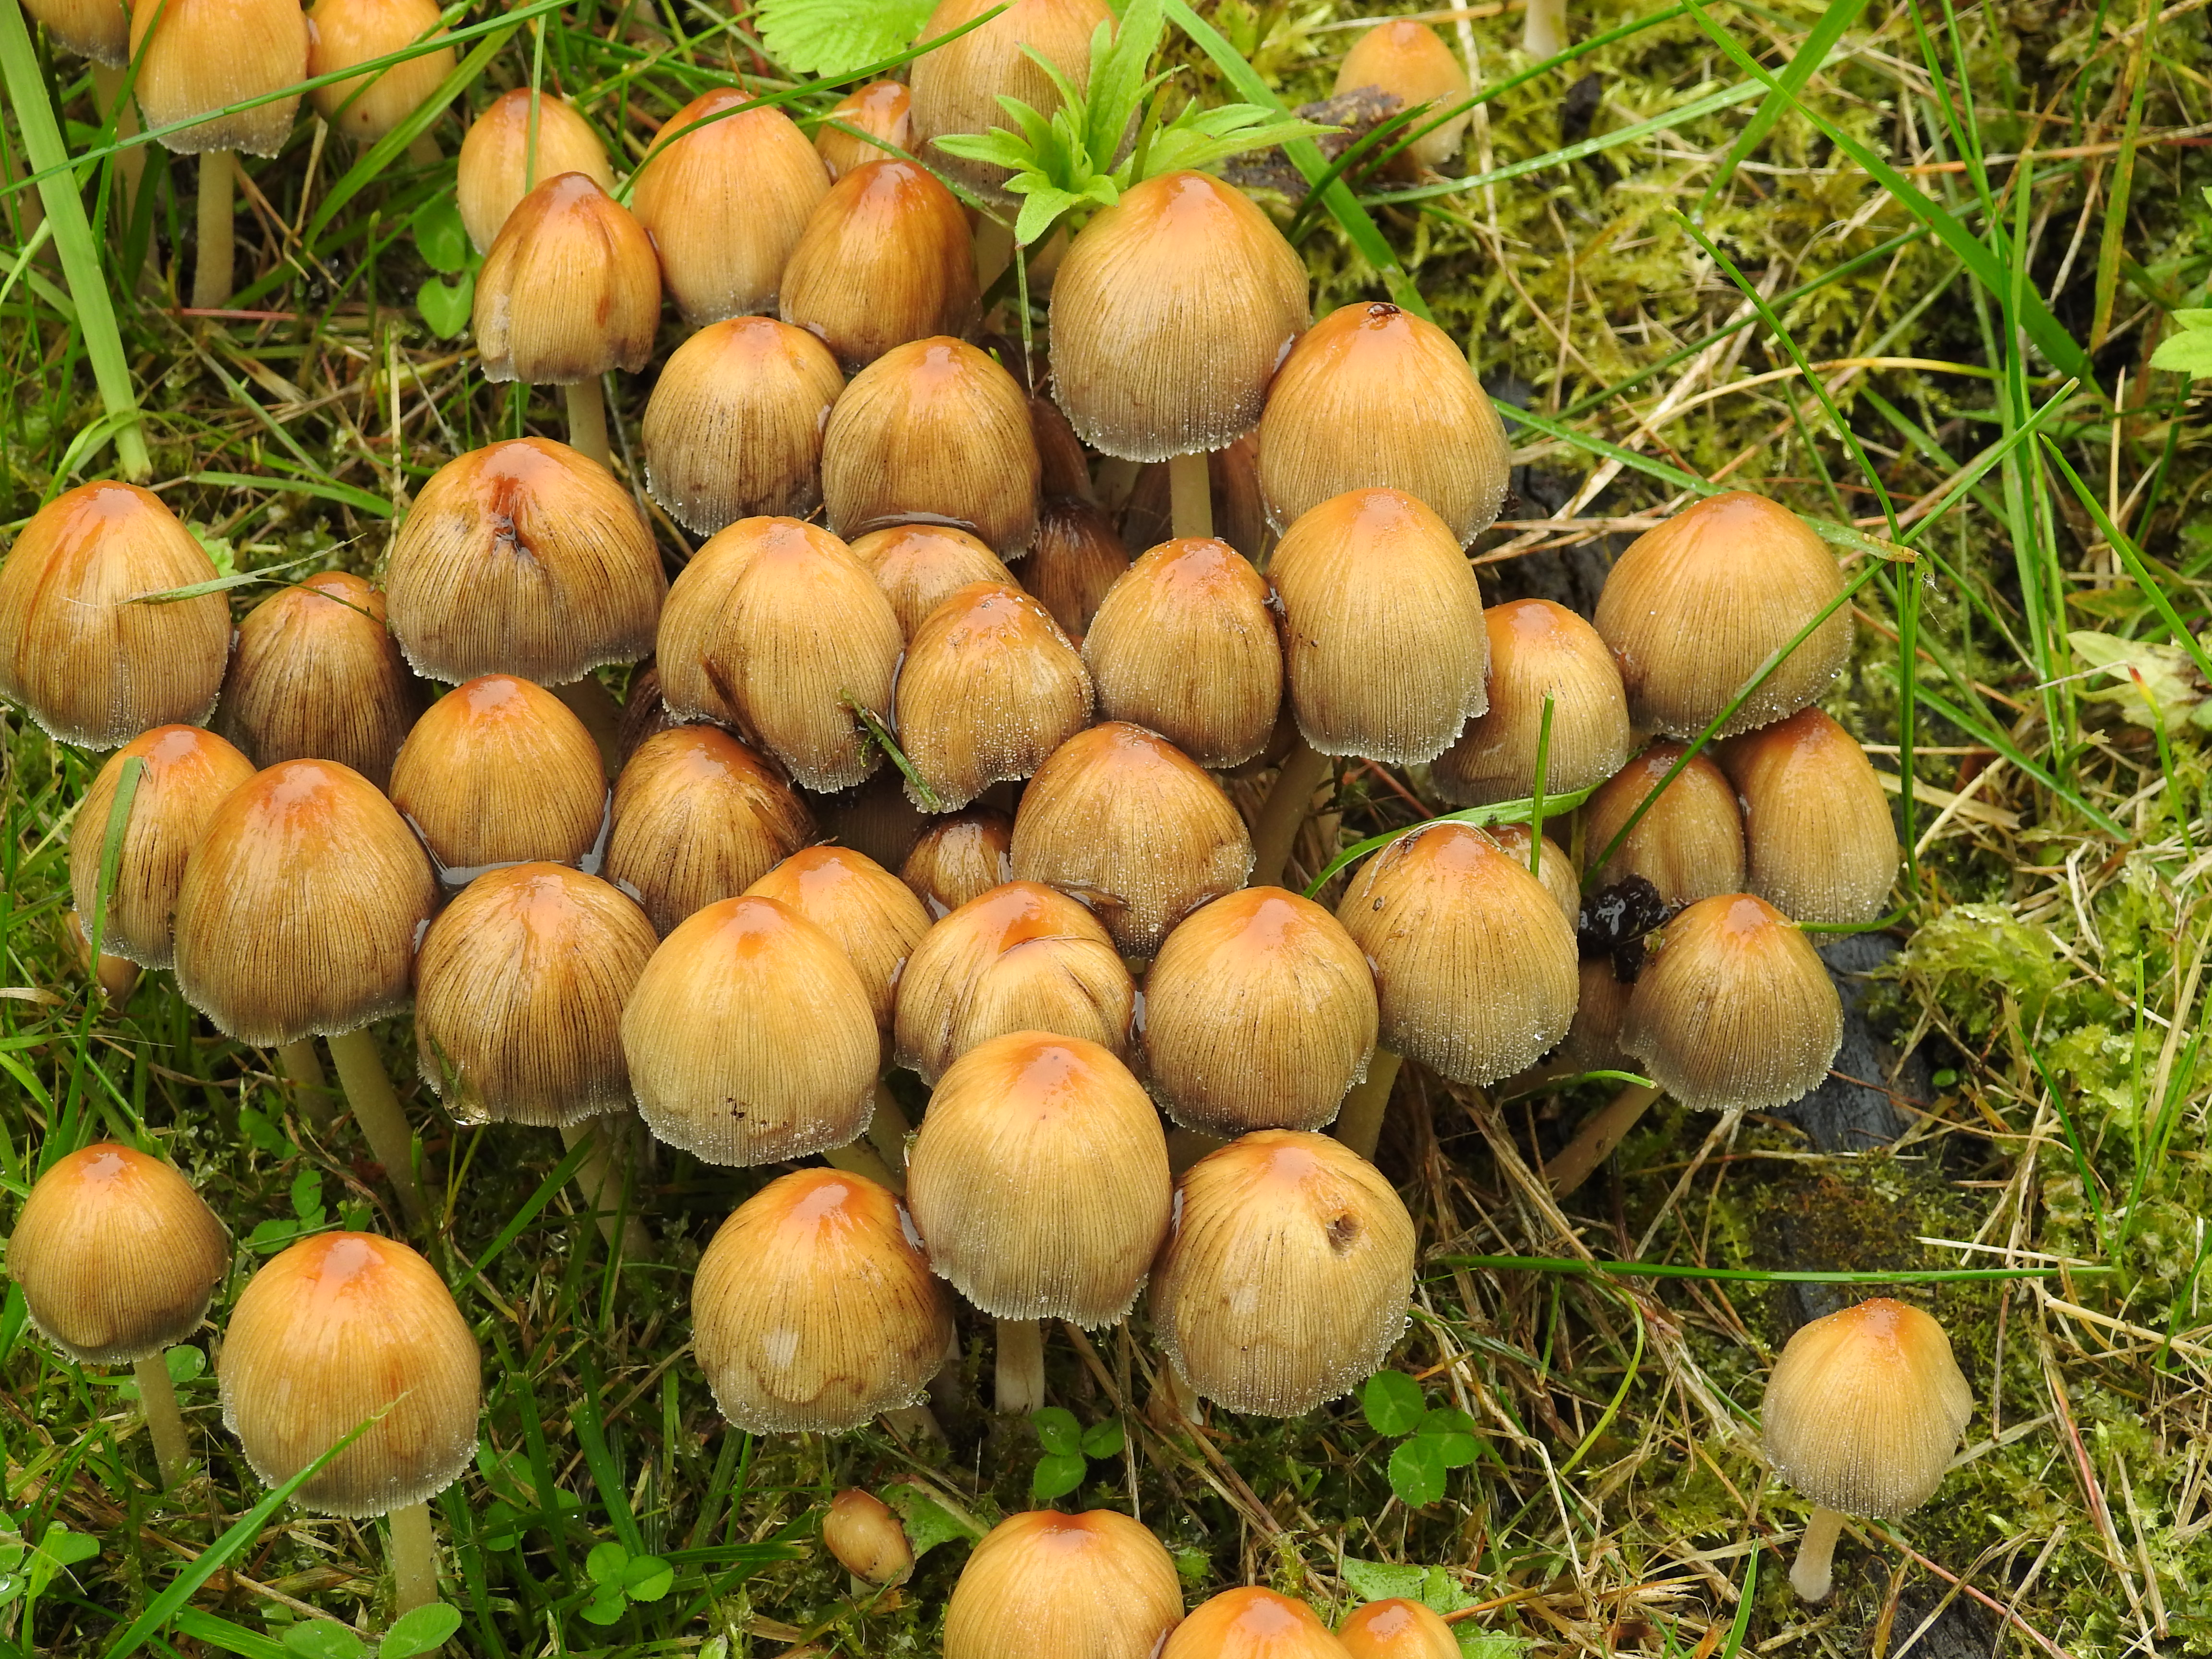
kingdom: Fungi
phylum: Basidiomycota
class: Agaricomycetes
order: Agaricales
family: Psathyrellaceae
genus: Coprinellus
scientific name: Coprinellus micaceus
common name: Glistening ink-cap
